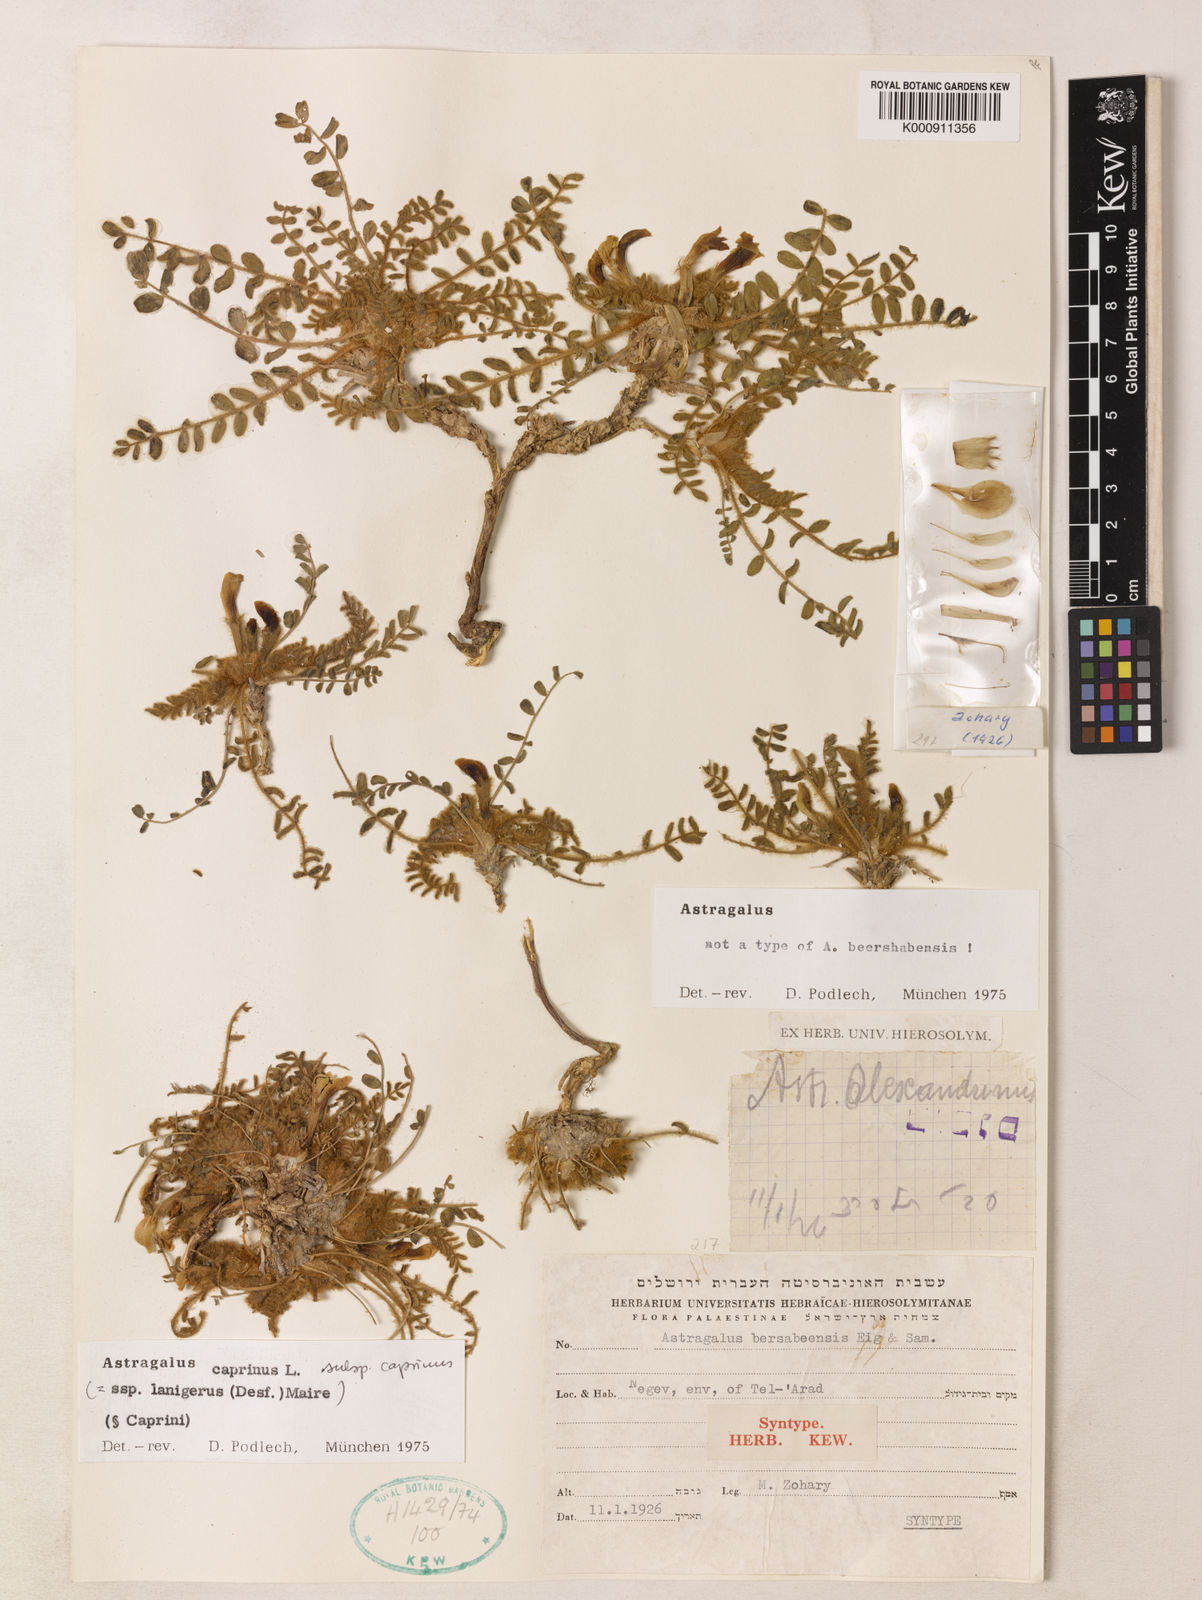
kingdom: Plantae
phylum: Tracheophyta
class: Magnoliopsida
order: Fabales
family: Fabaceae
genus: Astragalus
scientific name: Astragalus caprinus
